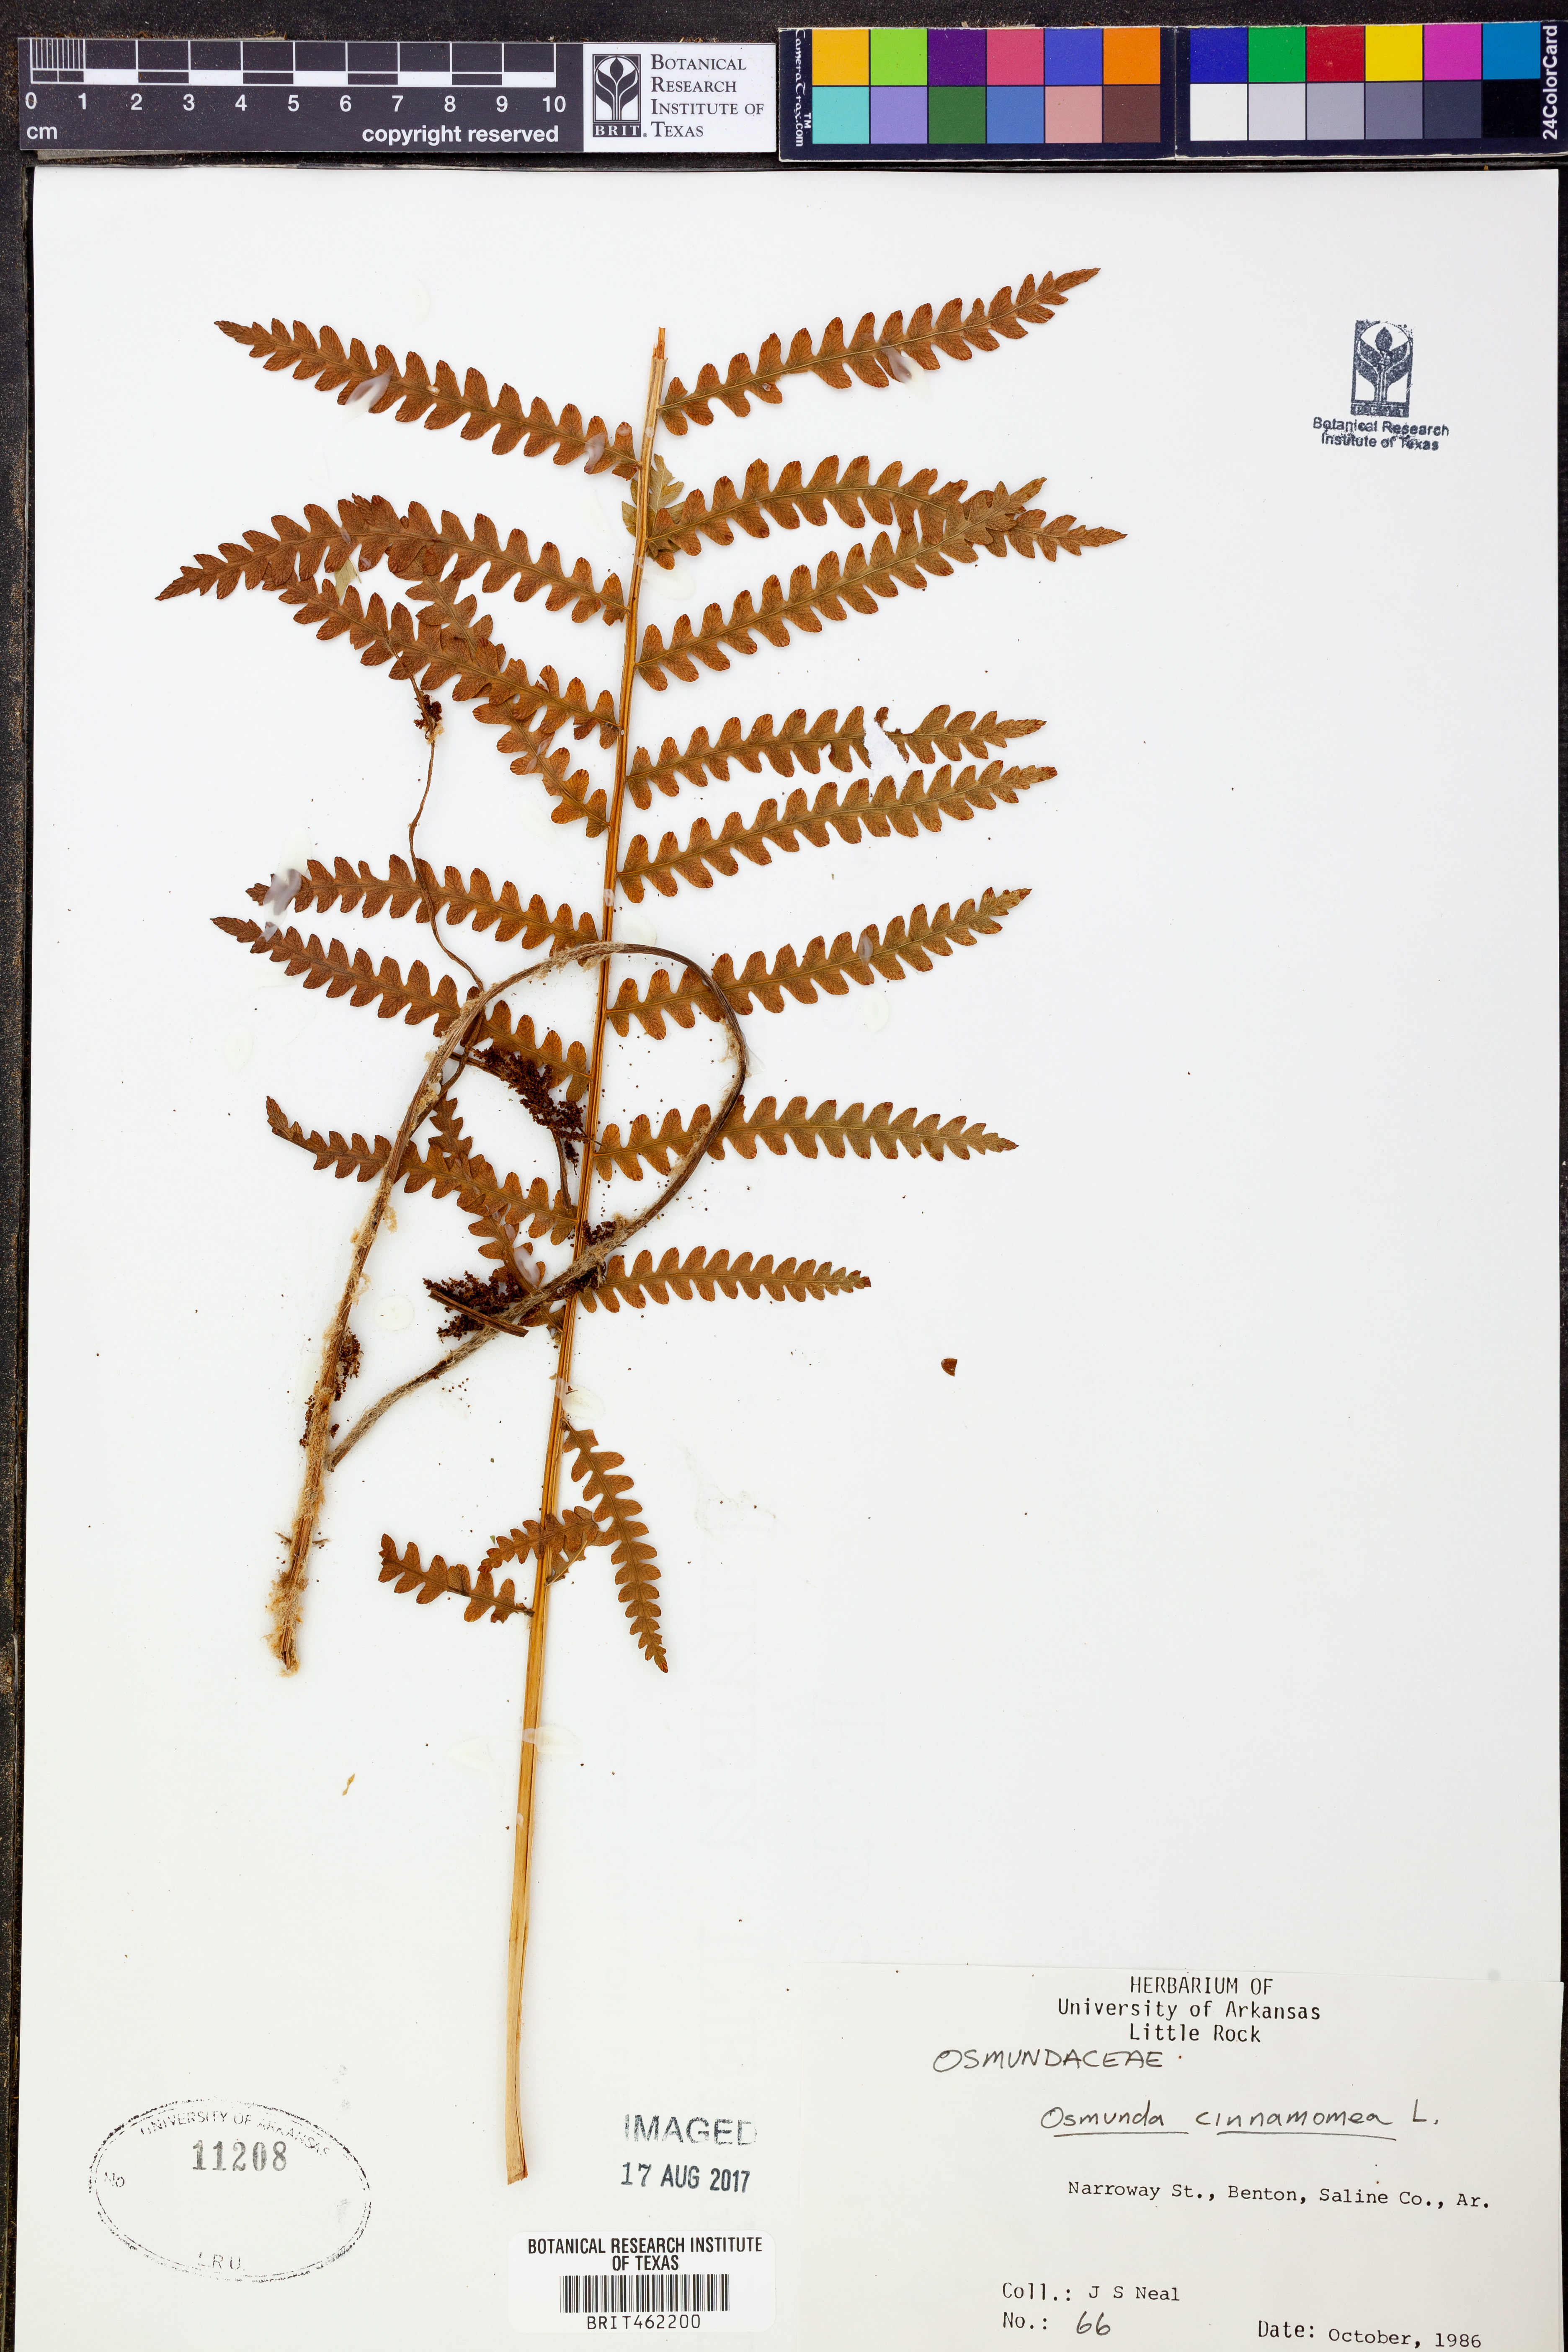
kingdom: Plantae
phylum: Tracheophyta
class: Polypodiopsida
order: Osmundales
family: Osmundaceae
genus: Osmundastrum
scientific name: Osmundastrum cinnamomeum
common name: Cinnamon fern
